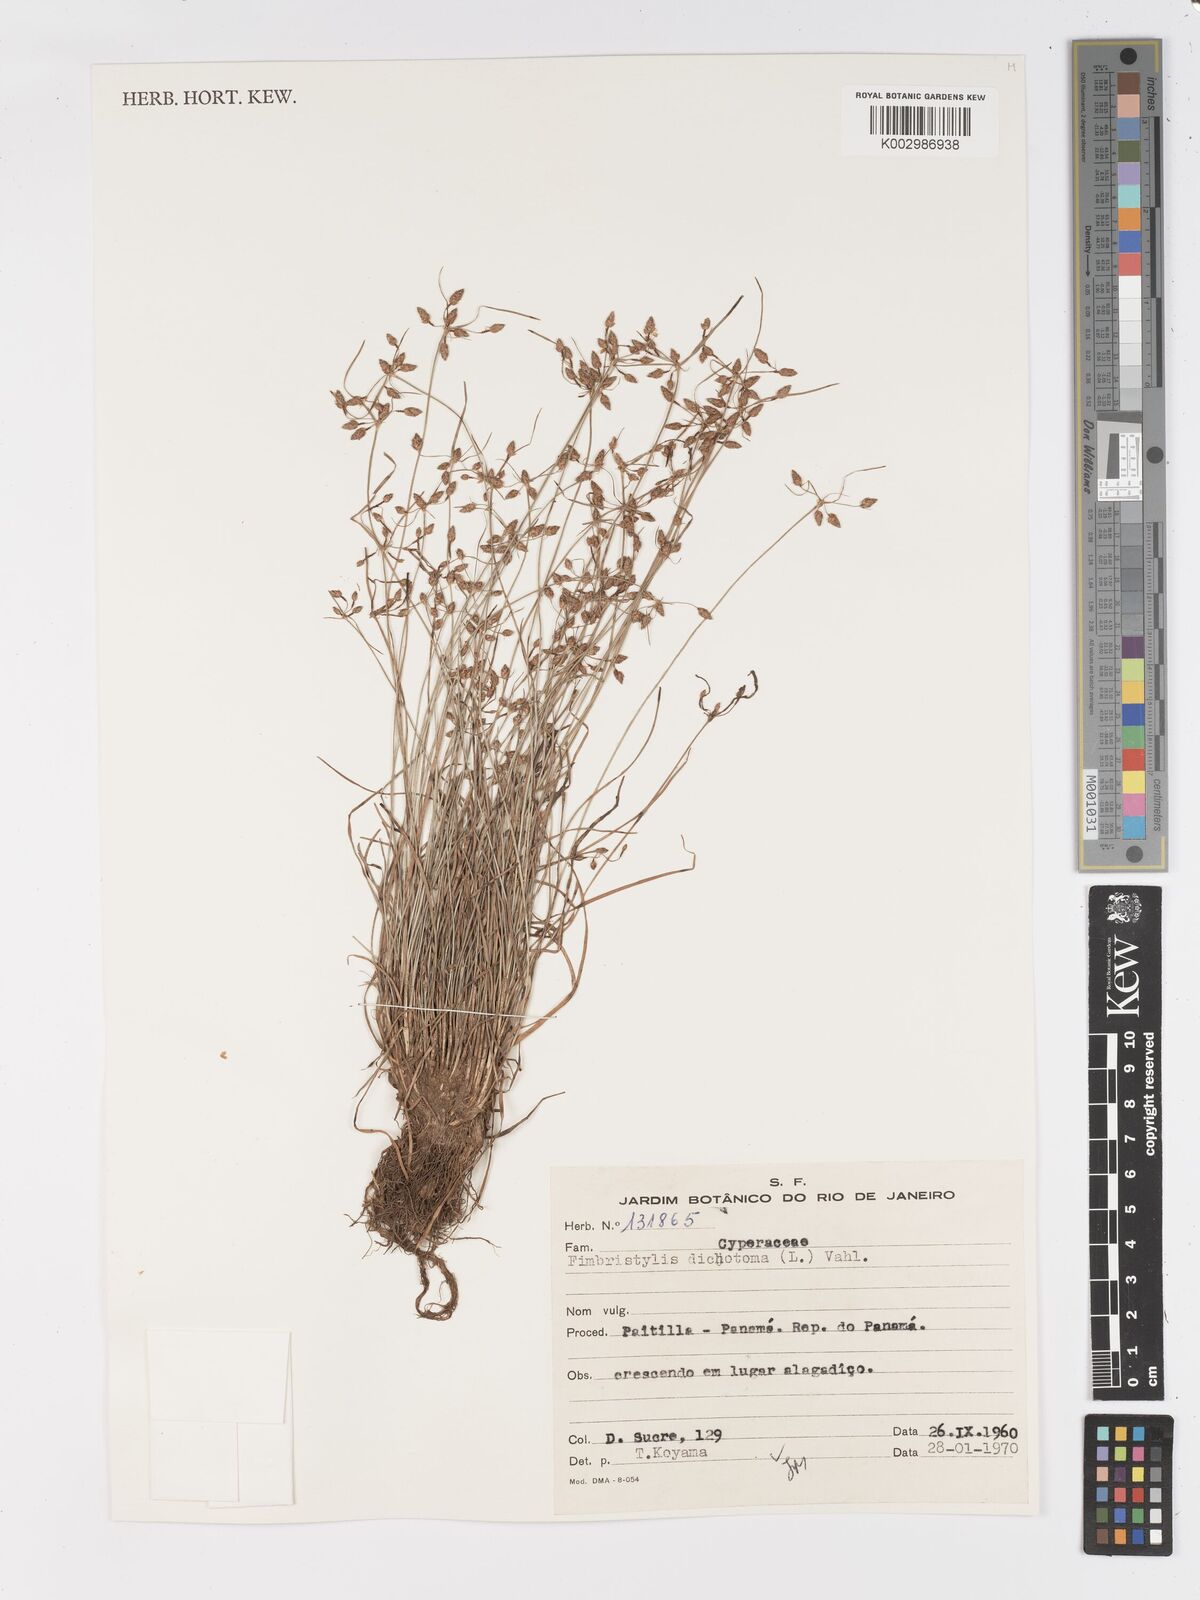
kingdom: Plantae
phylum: Tracheophyta
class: Liliopsida
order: Poales
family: Cyperaceae
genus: Fimbristylis
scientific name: Fimbristylis dichotoma
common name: Forked fimbry
